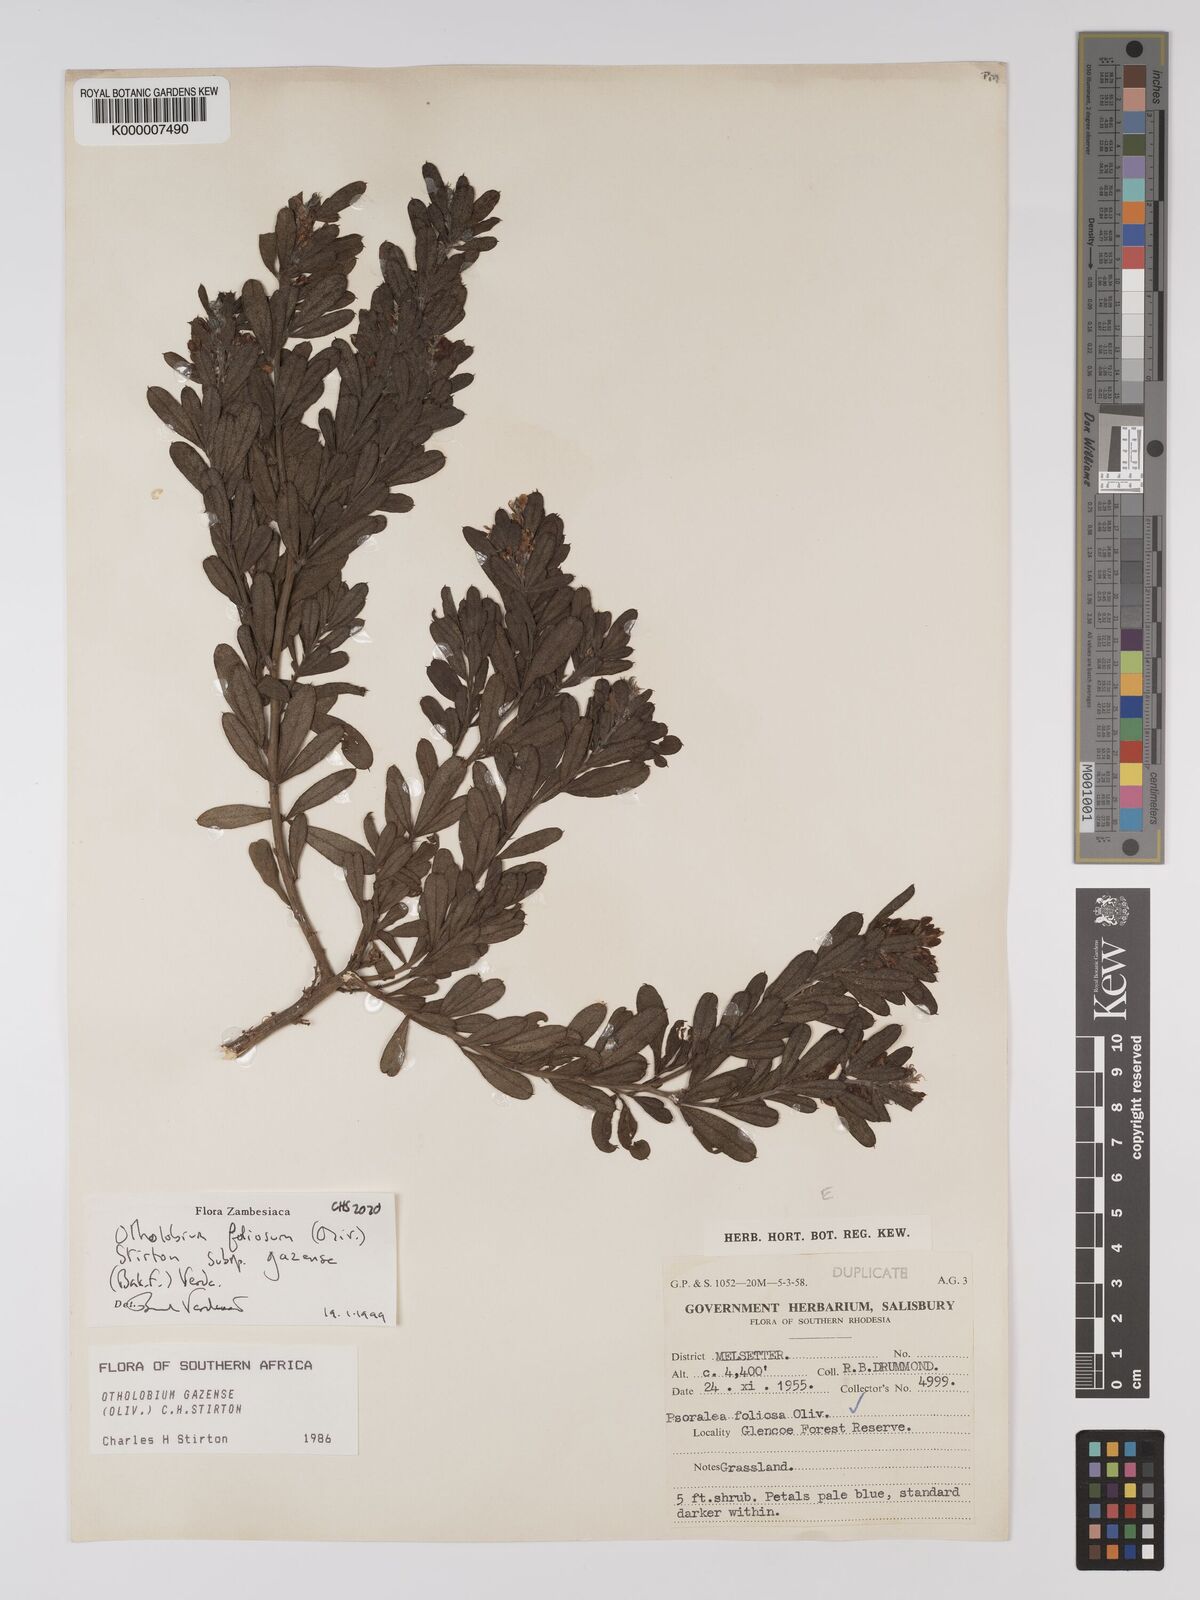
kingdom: Plantae
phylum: Tracheophyta
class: Magnoliopsida
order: Fabales
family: Fabaceae
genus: Psoralea
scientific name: Psoralea foliosa
